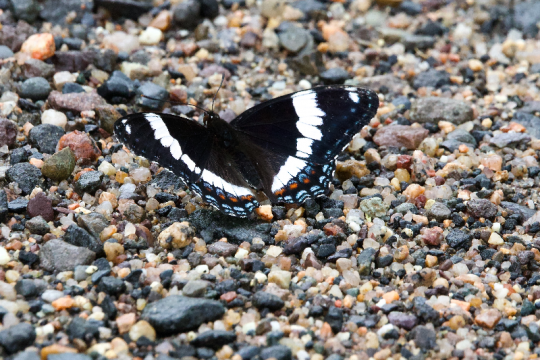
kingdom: Animalia
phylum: Arthropoda
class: Insecta
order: Lepidoptera
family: Nymphalidae
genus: Limenitis
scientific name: Limenitis arthemis
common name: Red-spotted Admiral
